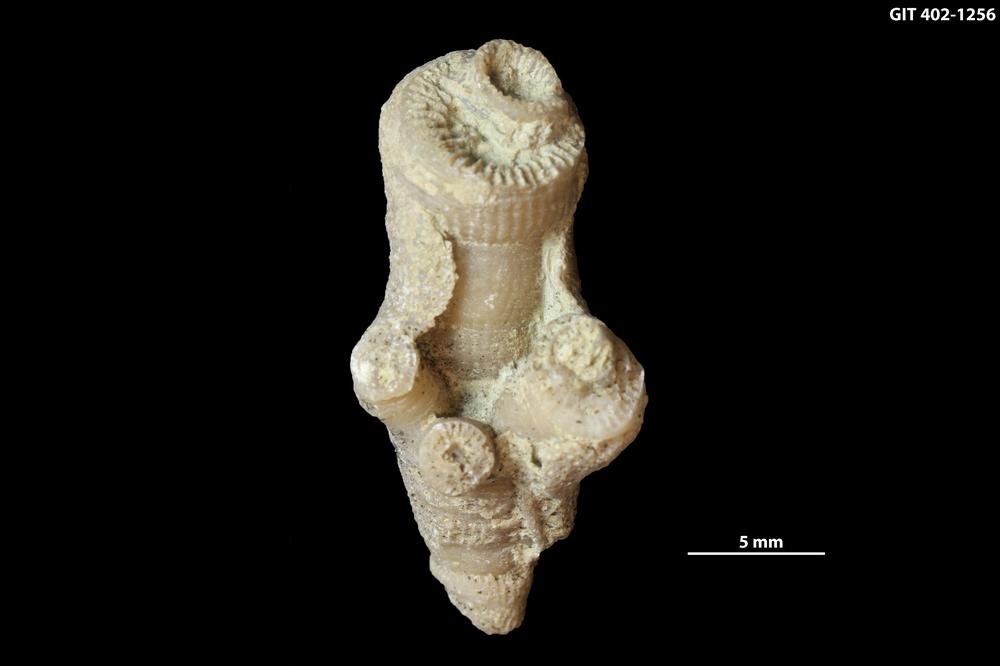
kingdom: Animalia
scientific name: Animalia
